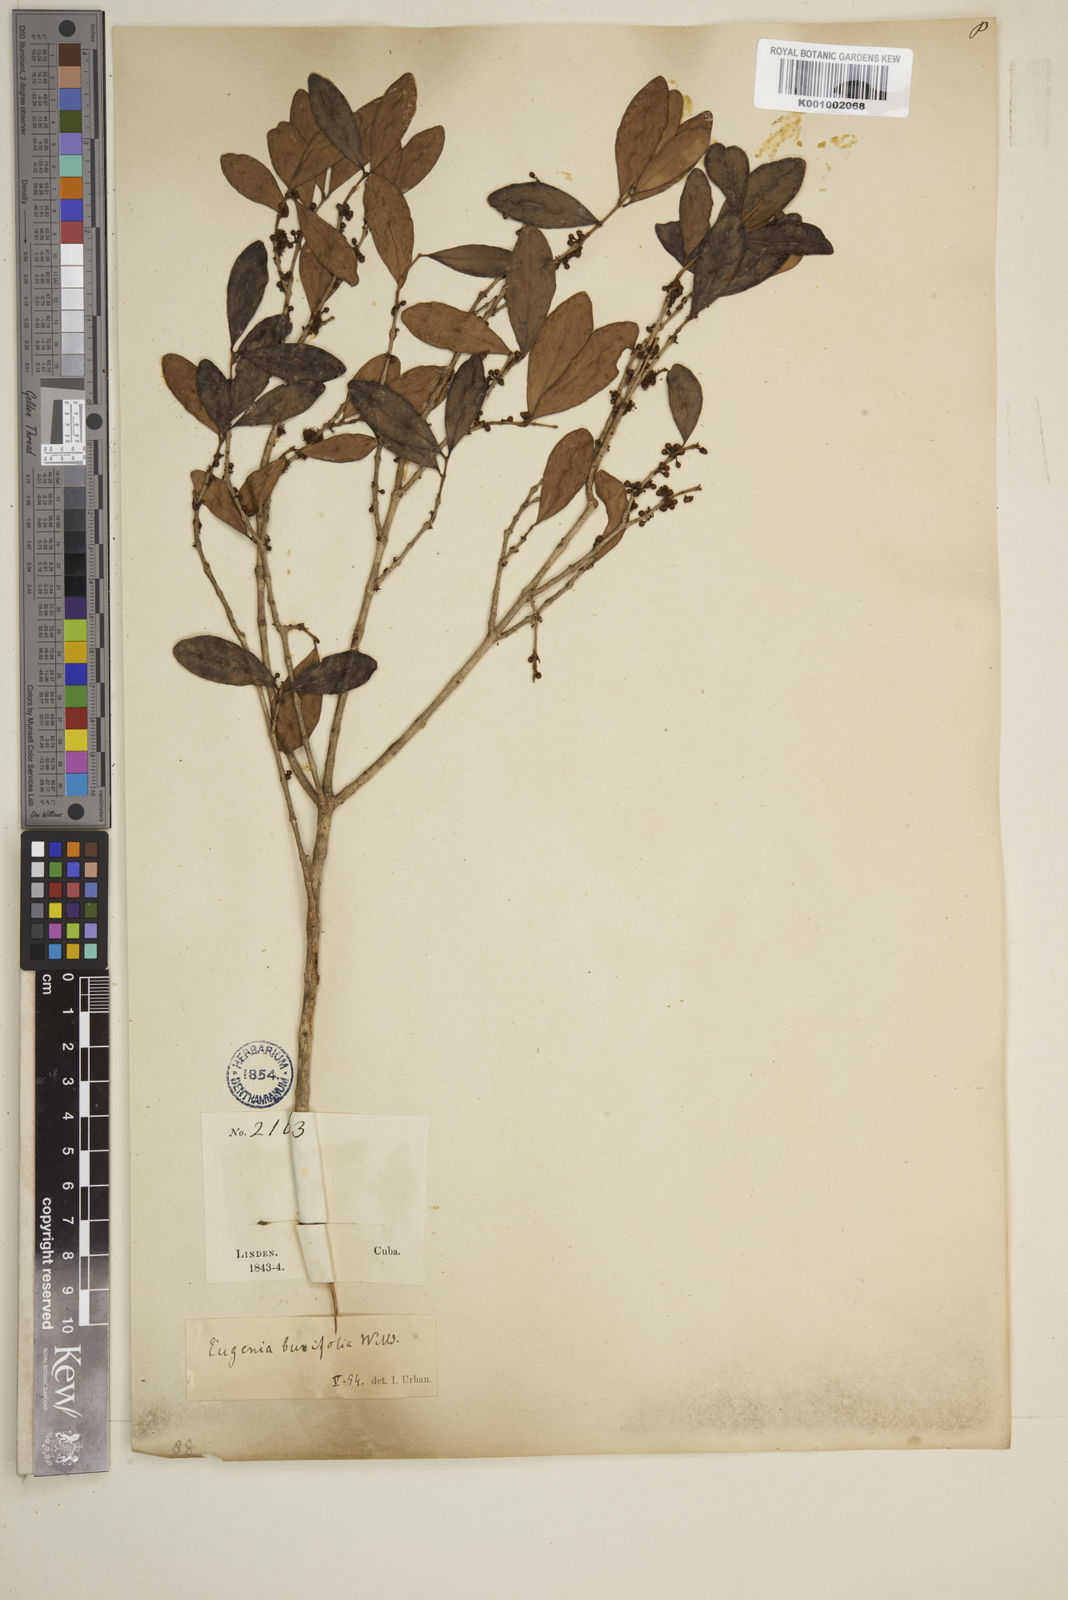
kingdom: Plantae
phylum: Tracheophyta
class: Magnoliopsida
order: Myrtales
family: Myrtaceae
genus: Eugenia
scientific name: Eugenia buxifolia
